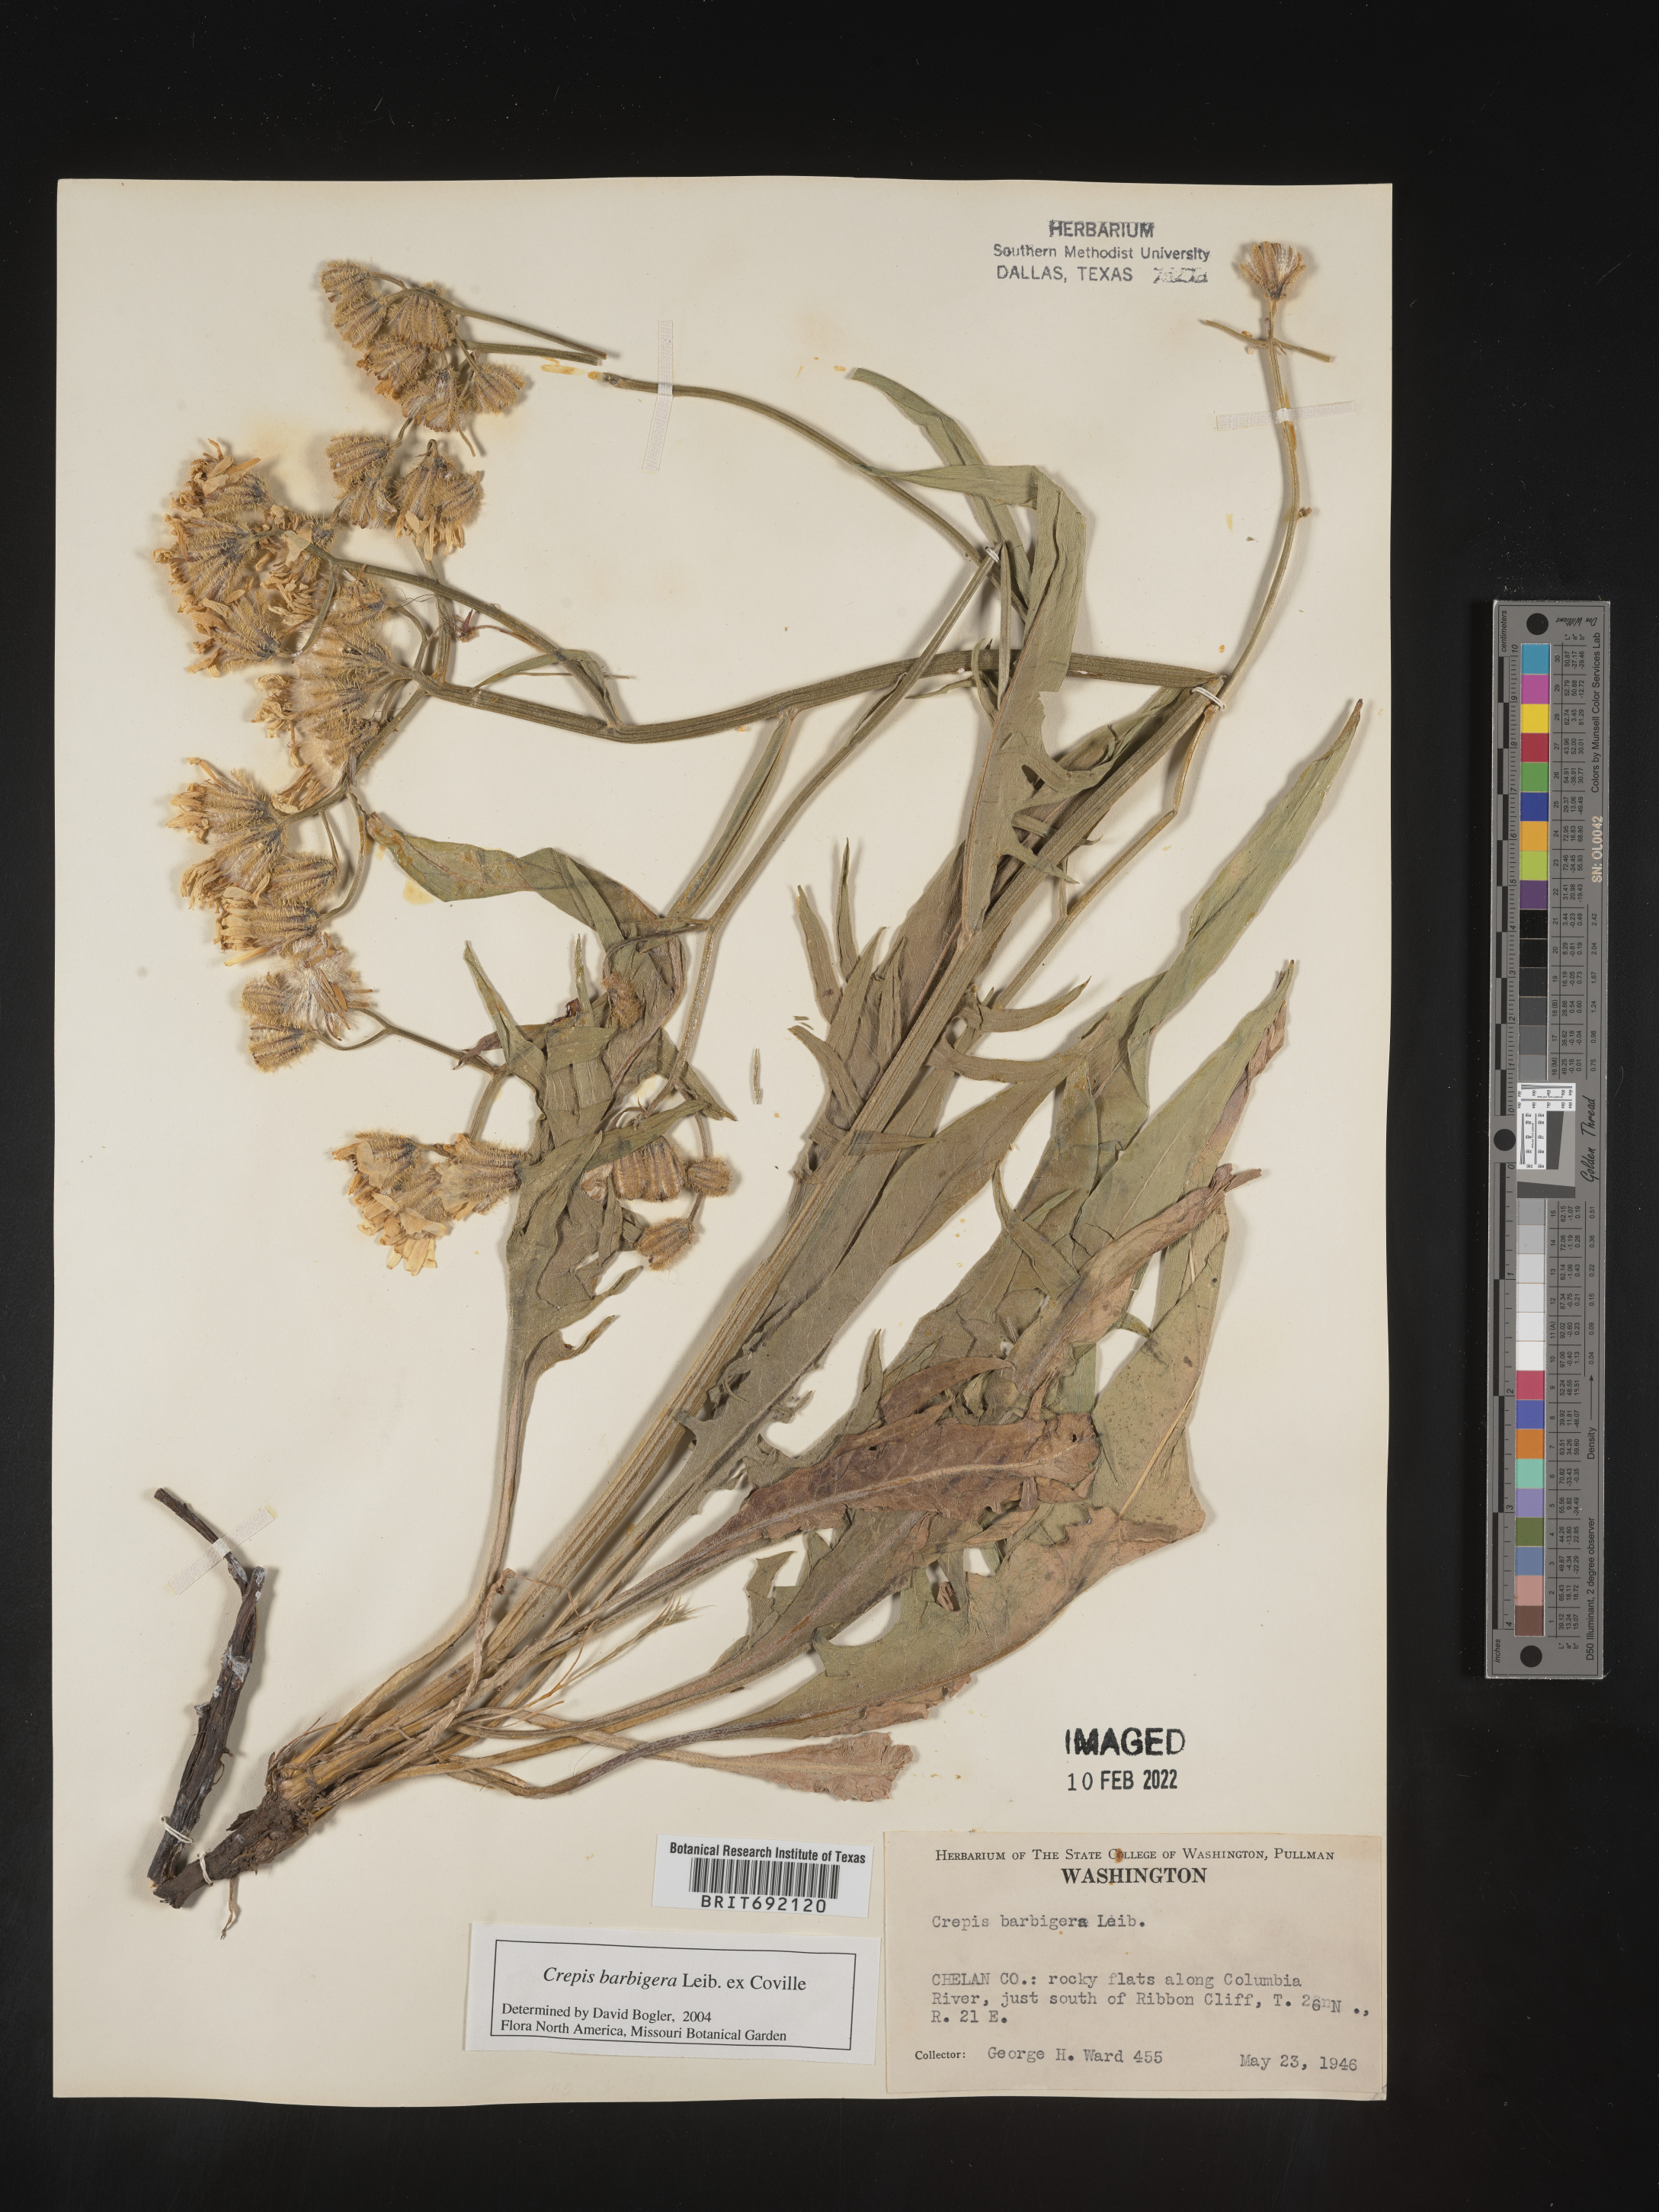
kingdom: Plantae
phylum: Tracheophyta
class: Magnoliopsida
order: Asterales
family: Asteraceae
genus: Crepis
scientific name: Crepis
